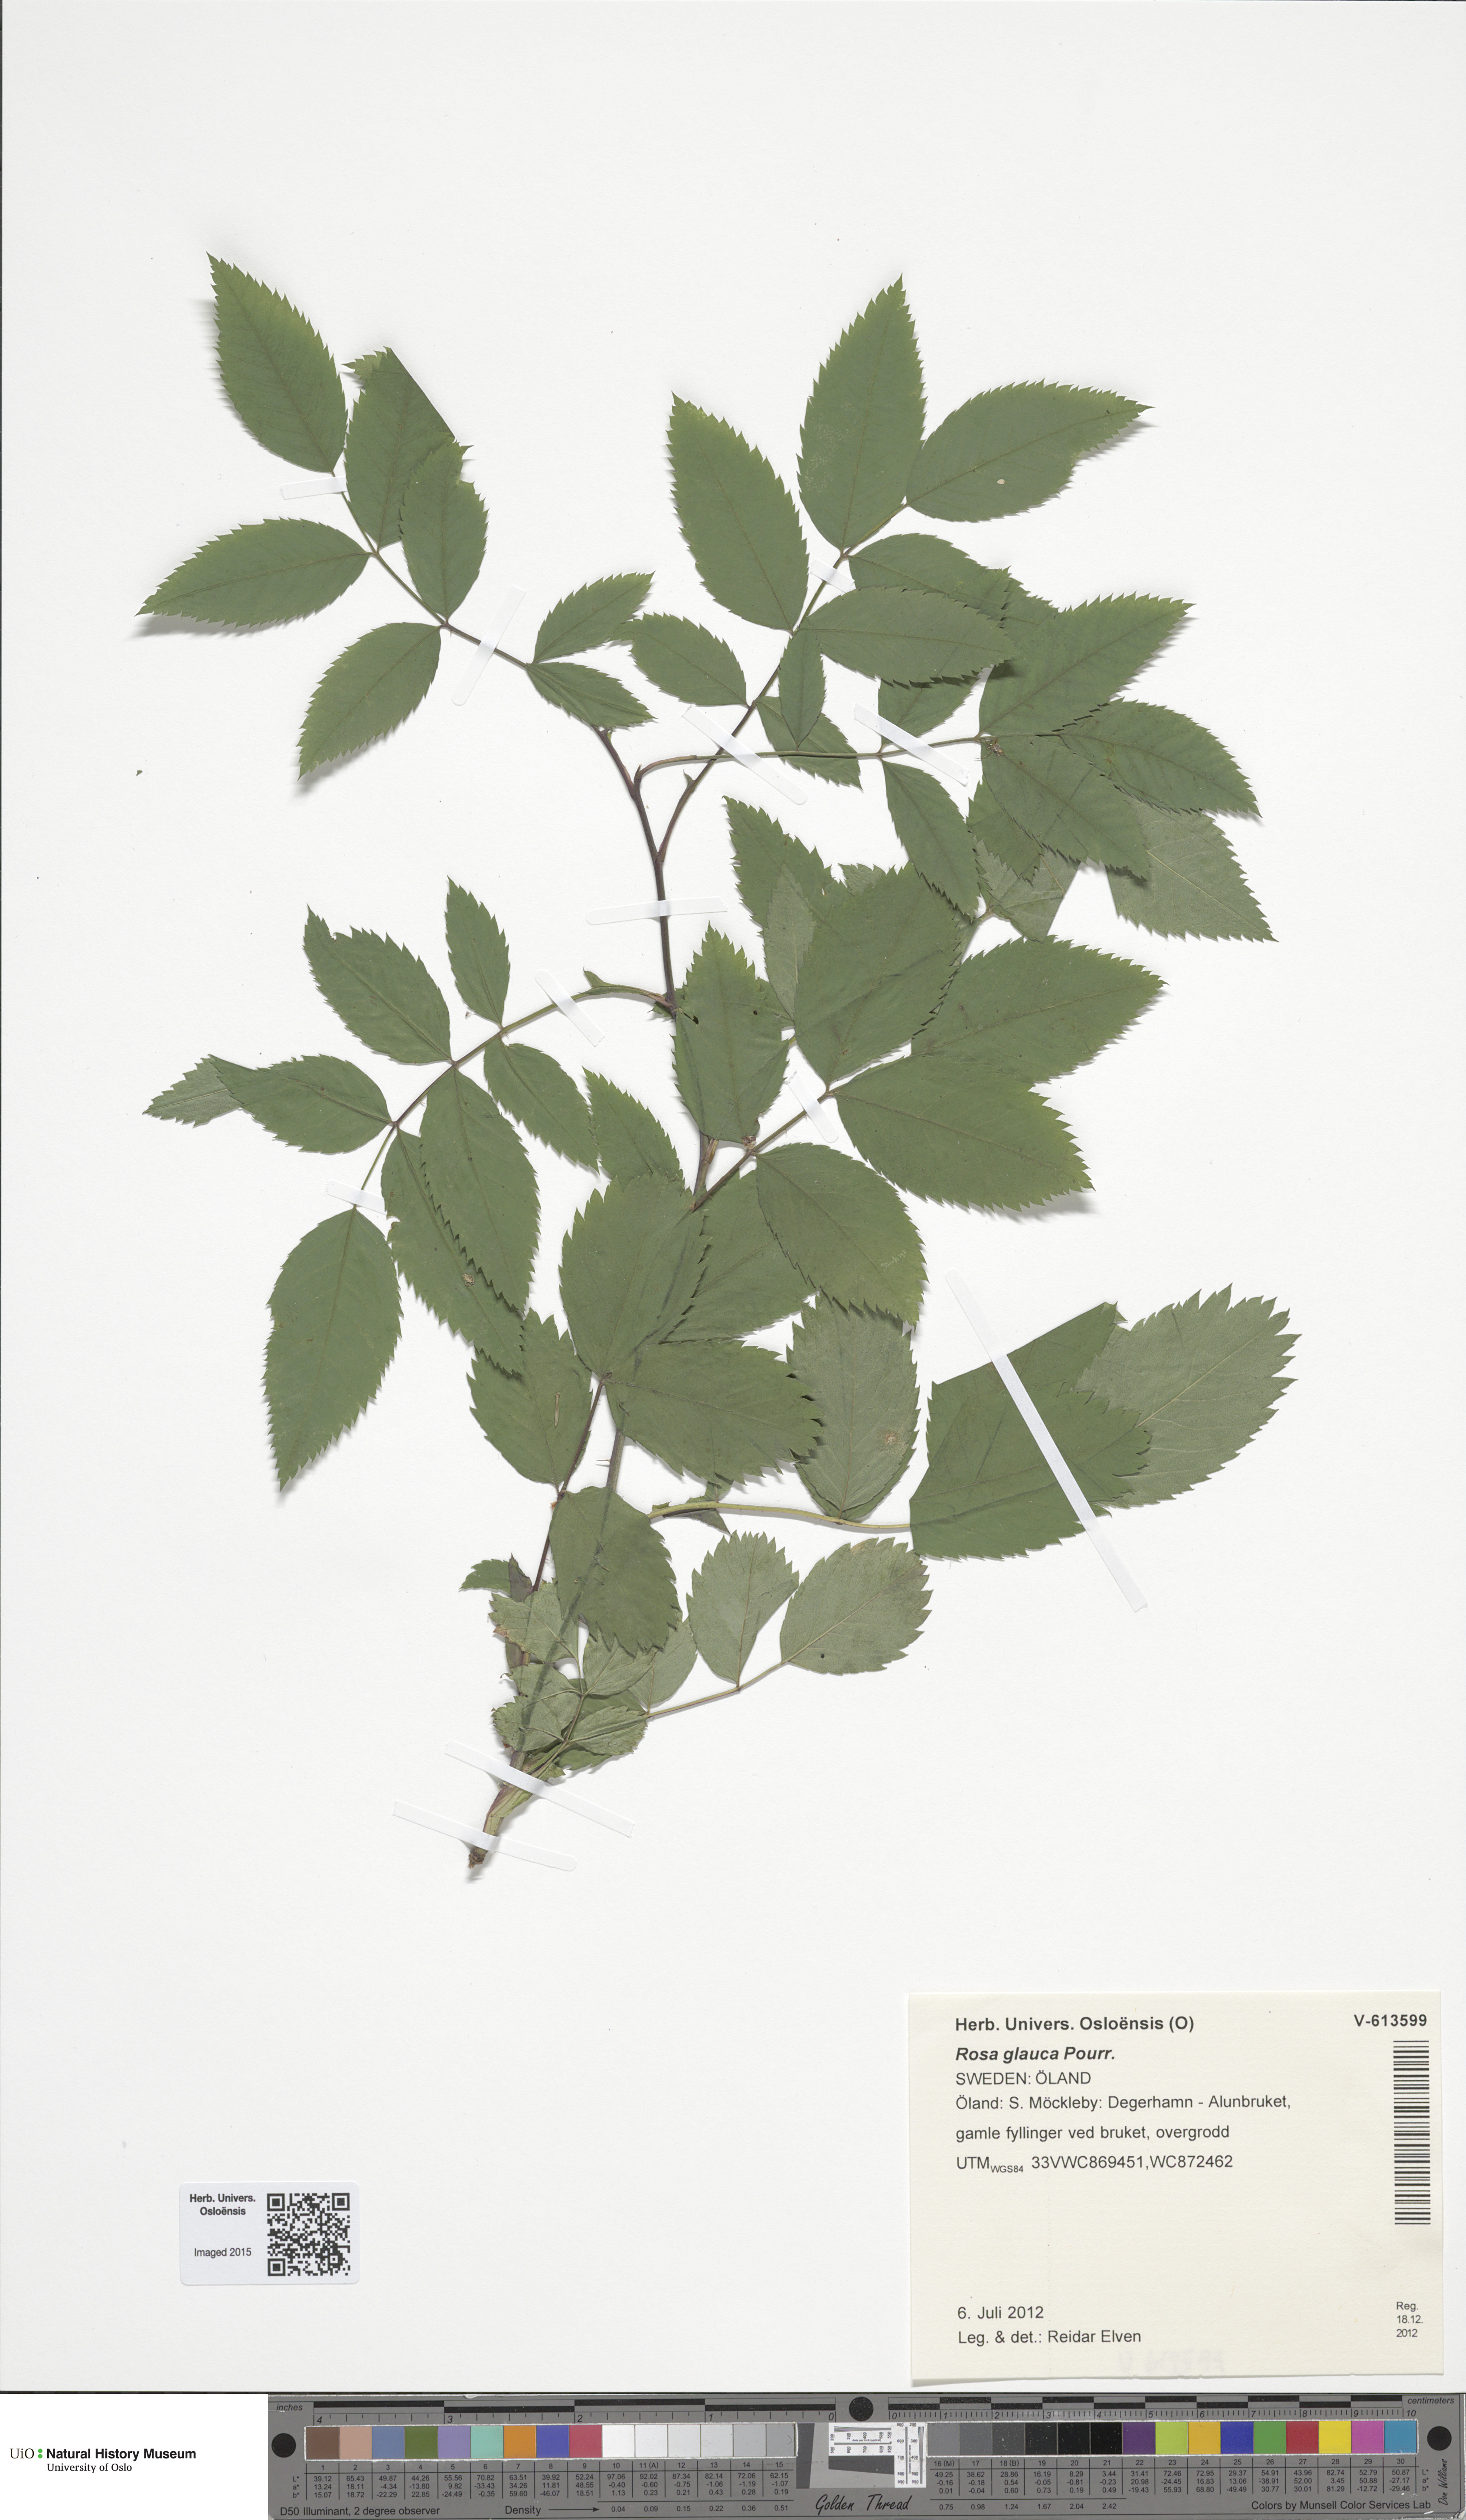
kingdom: Plantae
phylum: Tracheophyta
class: Magnoliopsida
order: Rosales
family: Rosaceae
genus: Rosa
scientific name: Rosa glauca
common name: Redleaf rose
